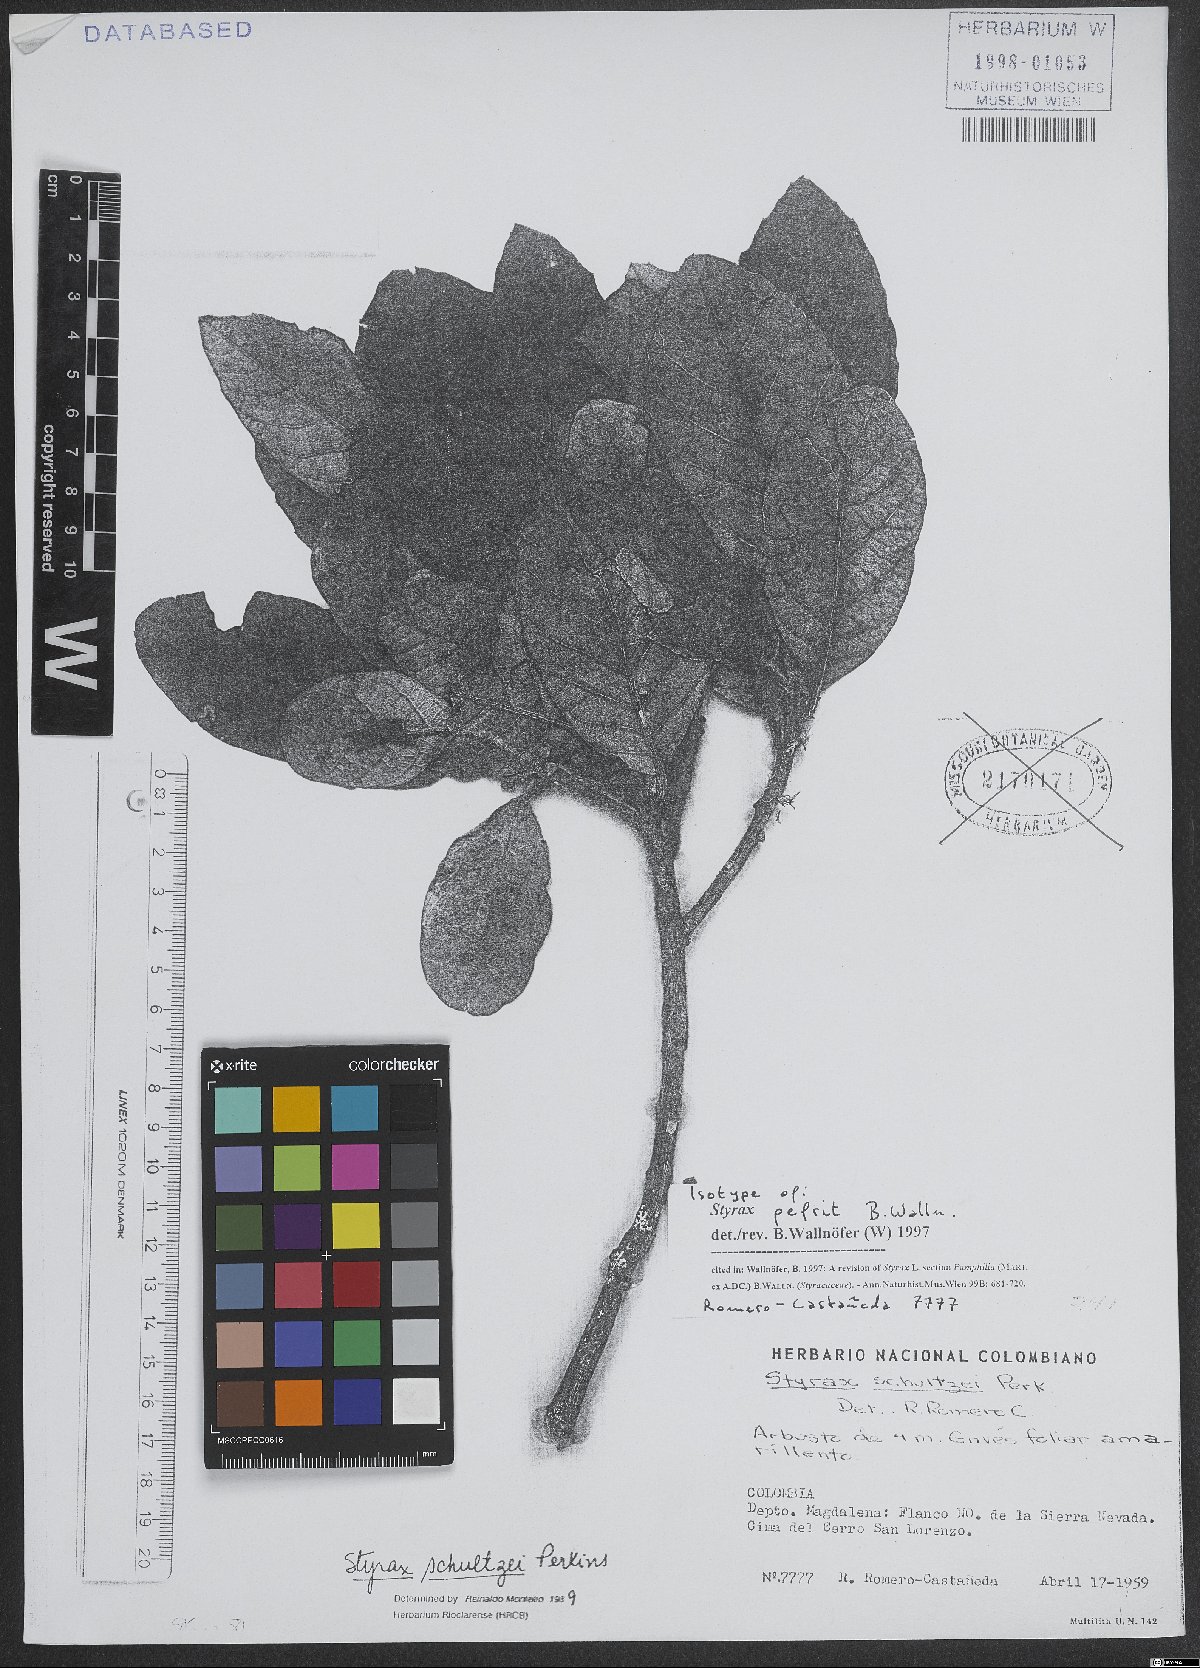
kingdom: Plantae
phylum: Tracheophyta
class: Magnoliopsida
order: Ericales
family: Styracaceae
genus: Styrax
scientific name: Styrax pefrit
